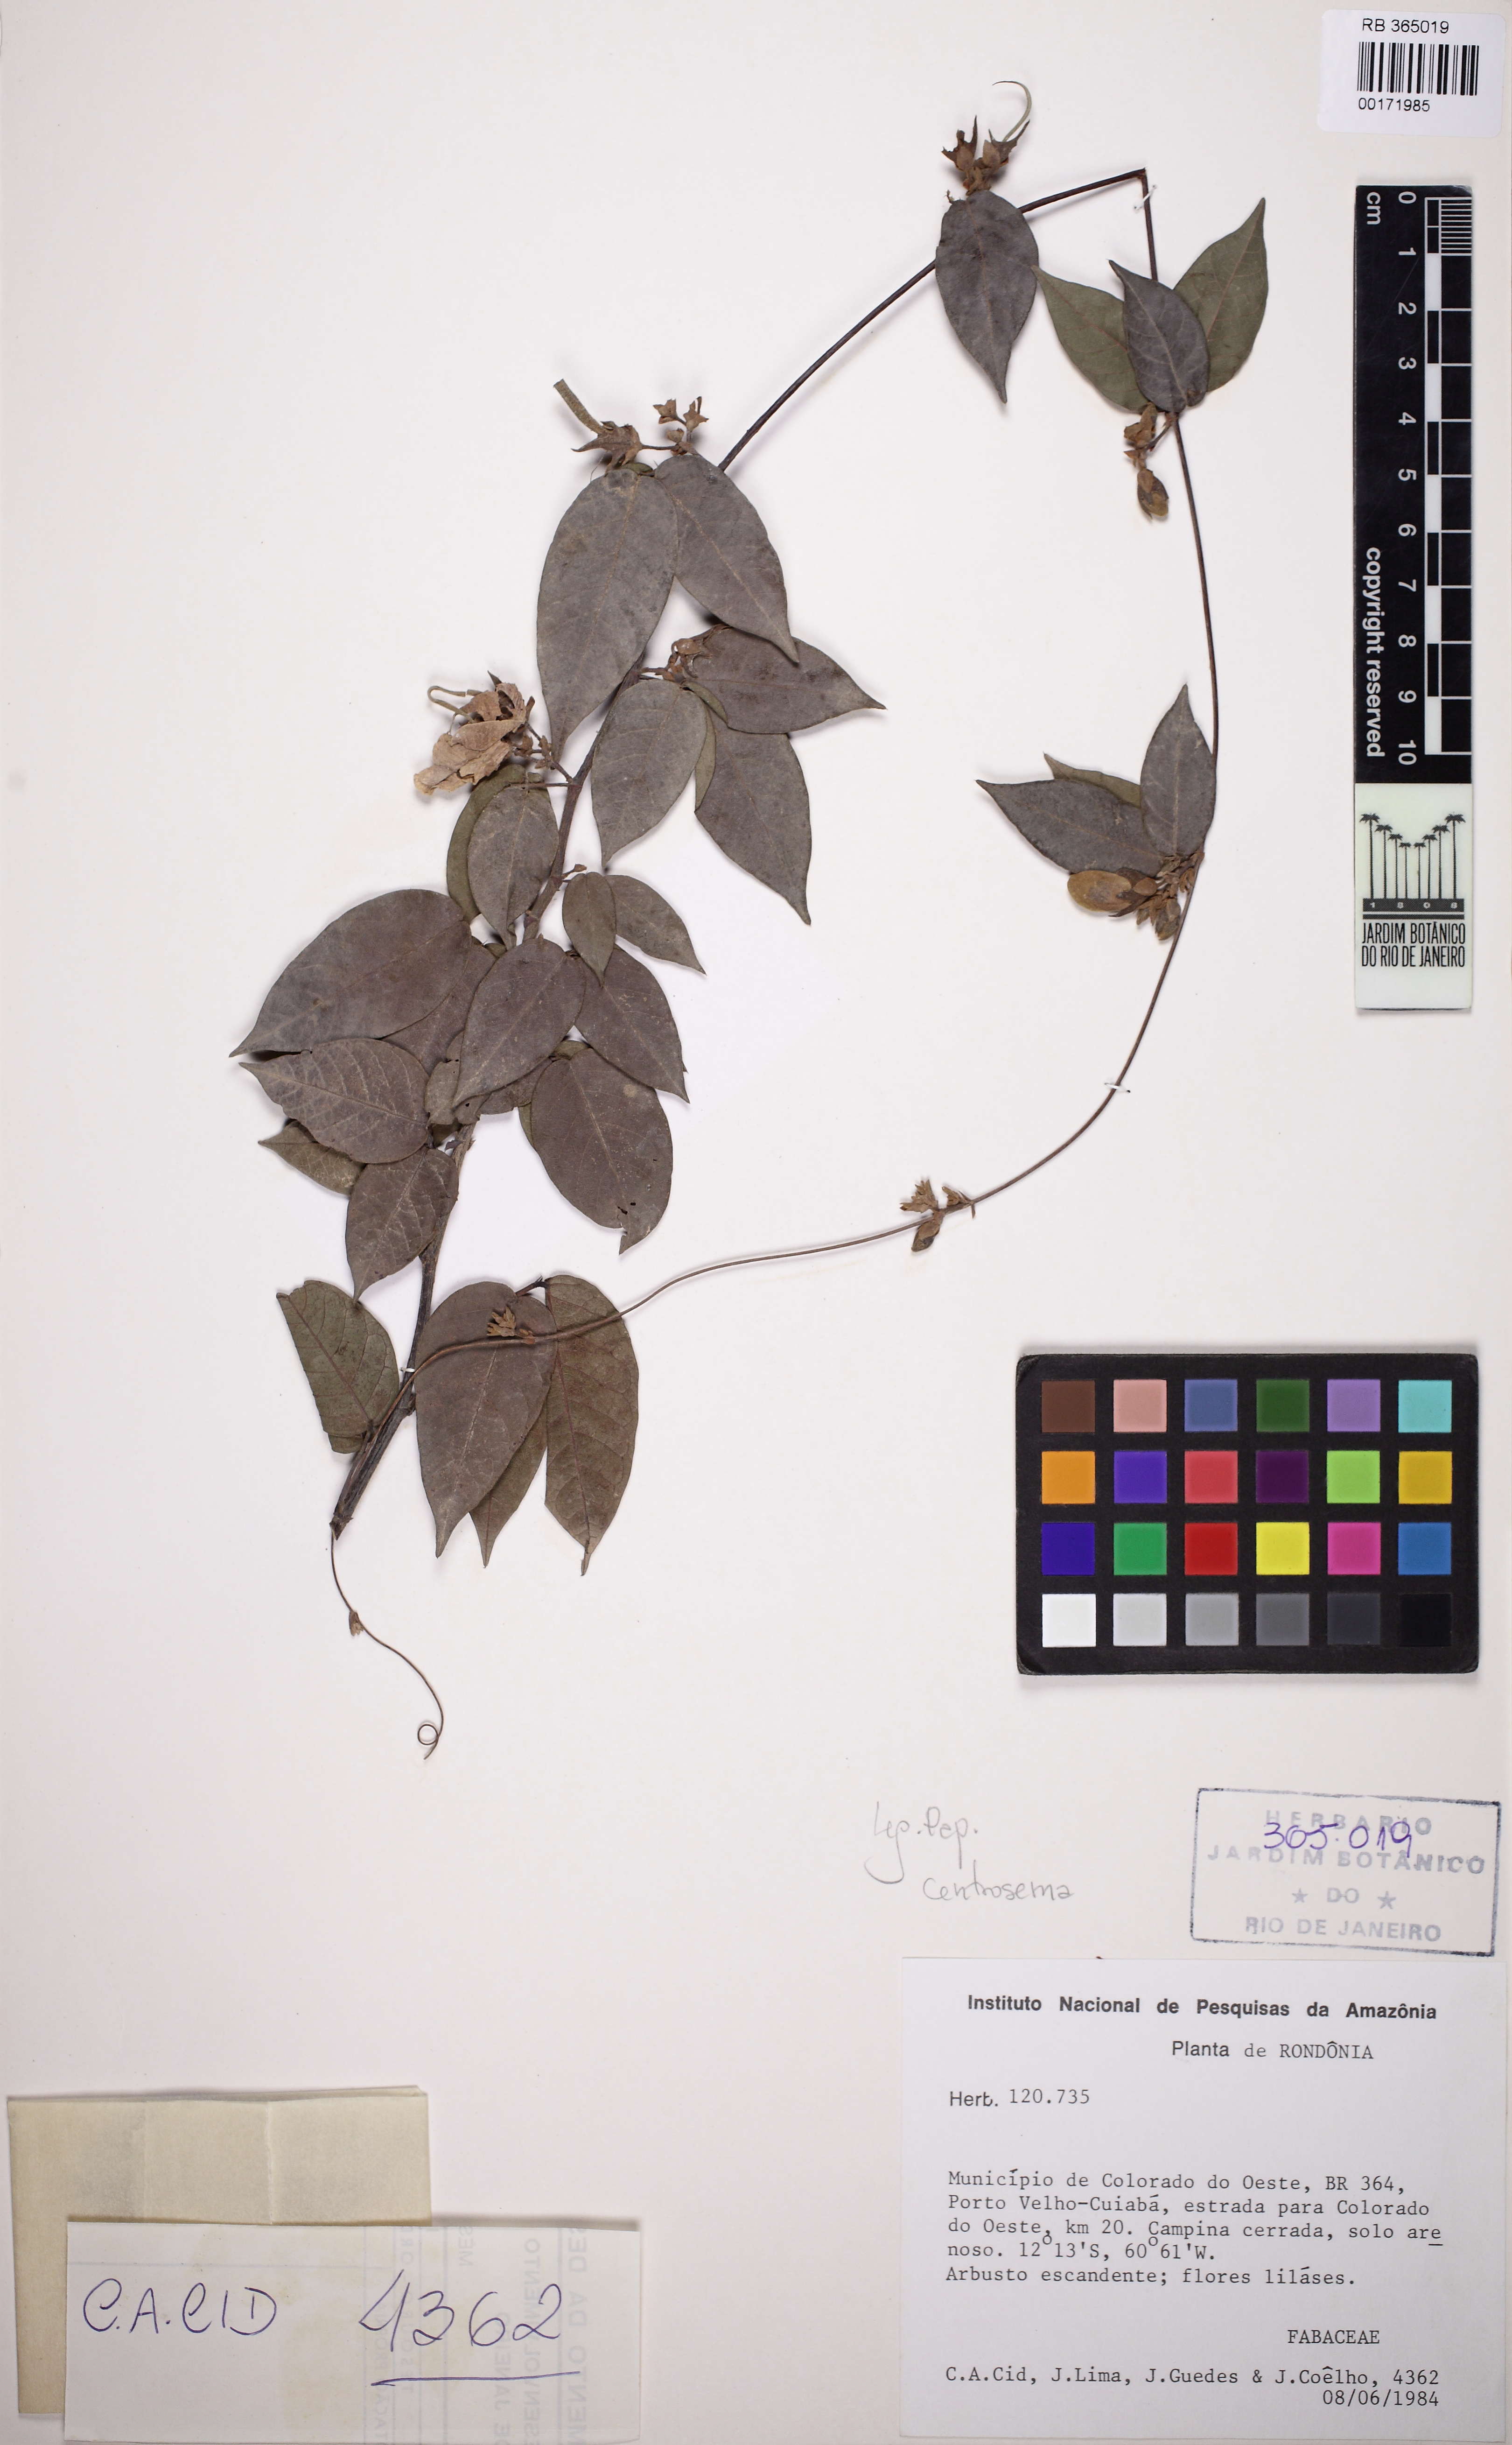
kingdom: Plantae
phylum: Tracheophyta
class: Magnoliopsida
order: Fabales
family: Fabaceae
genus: Centrosema
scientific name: Centrosema
